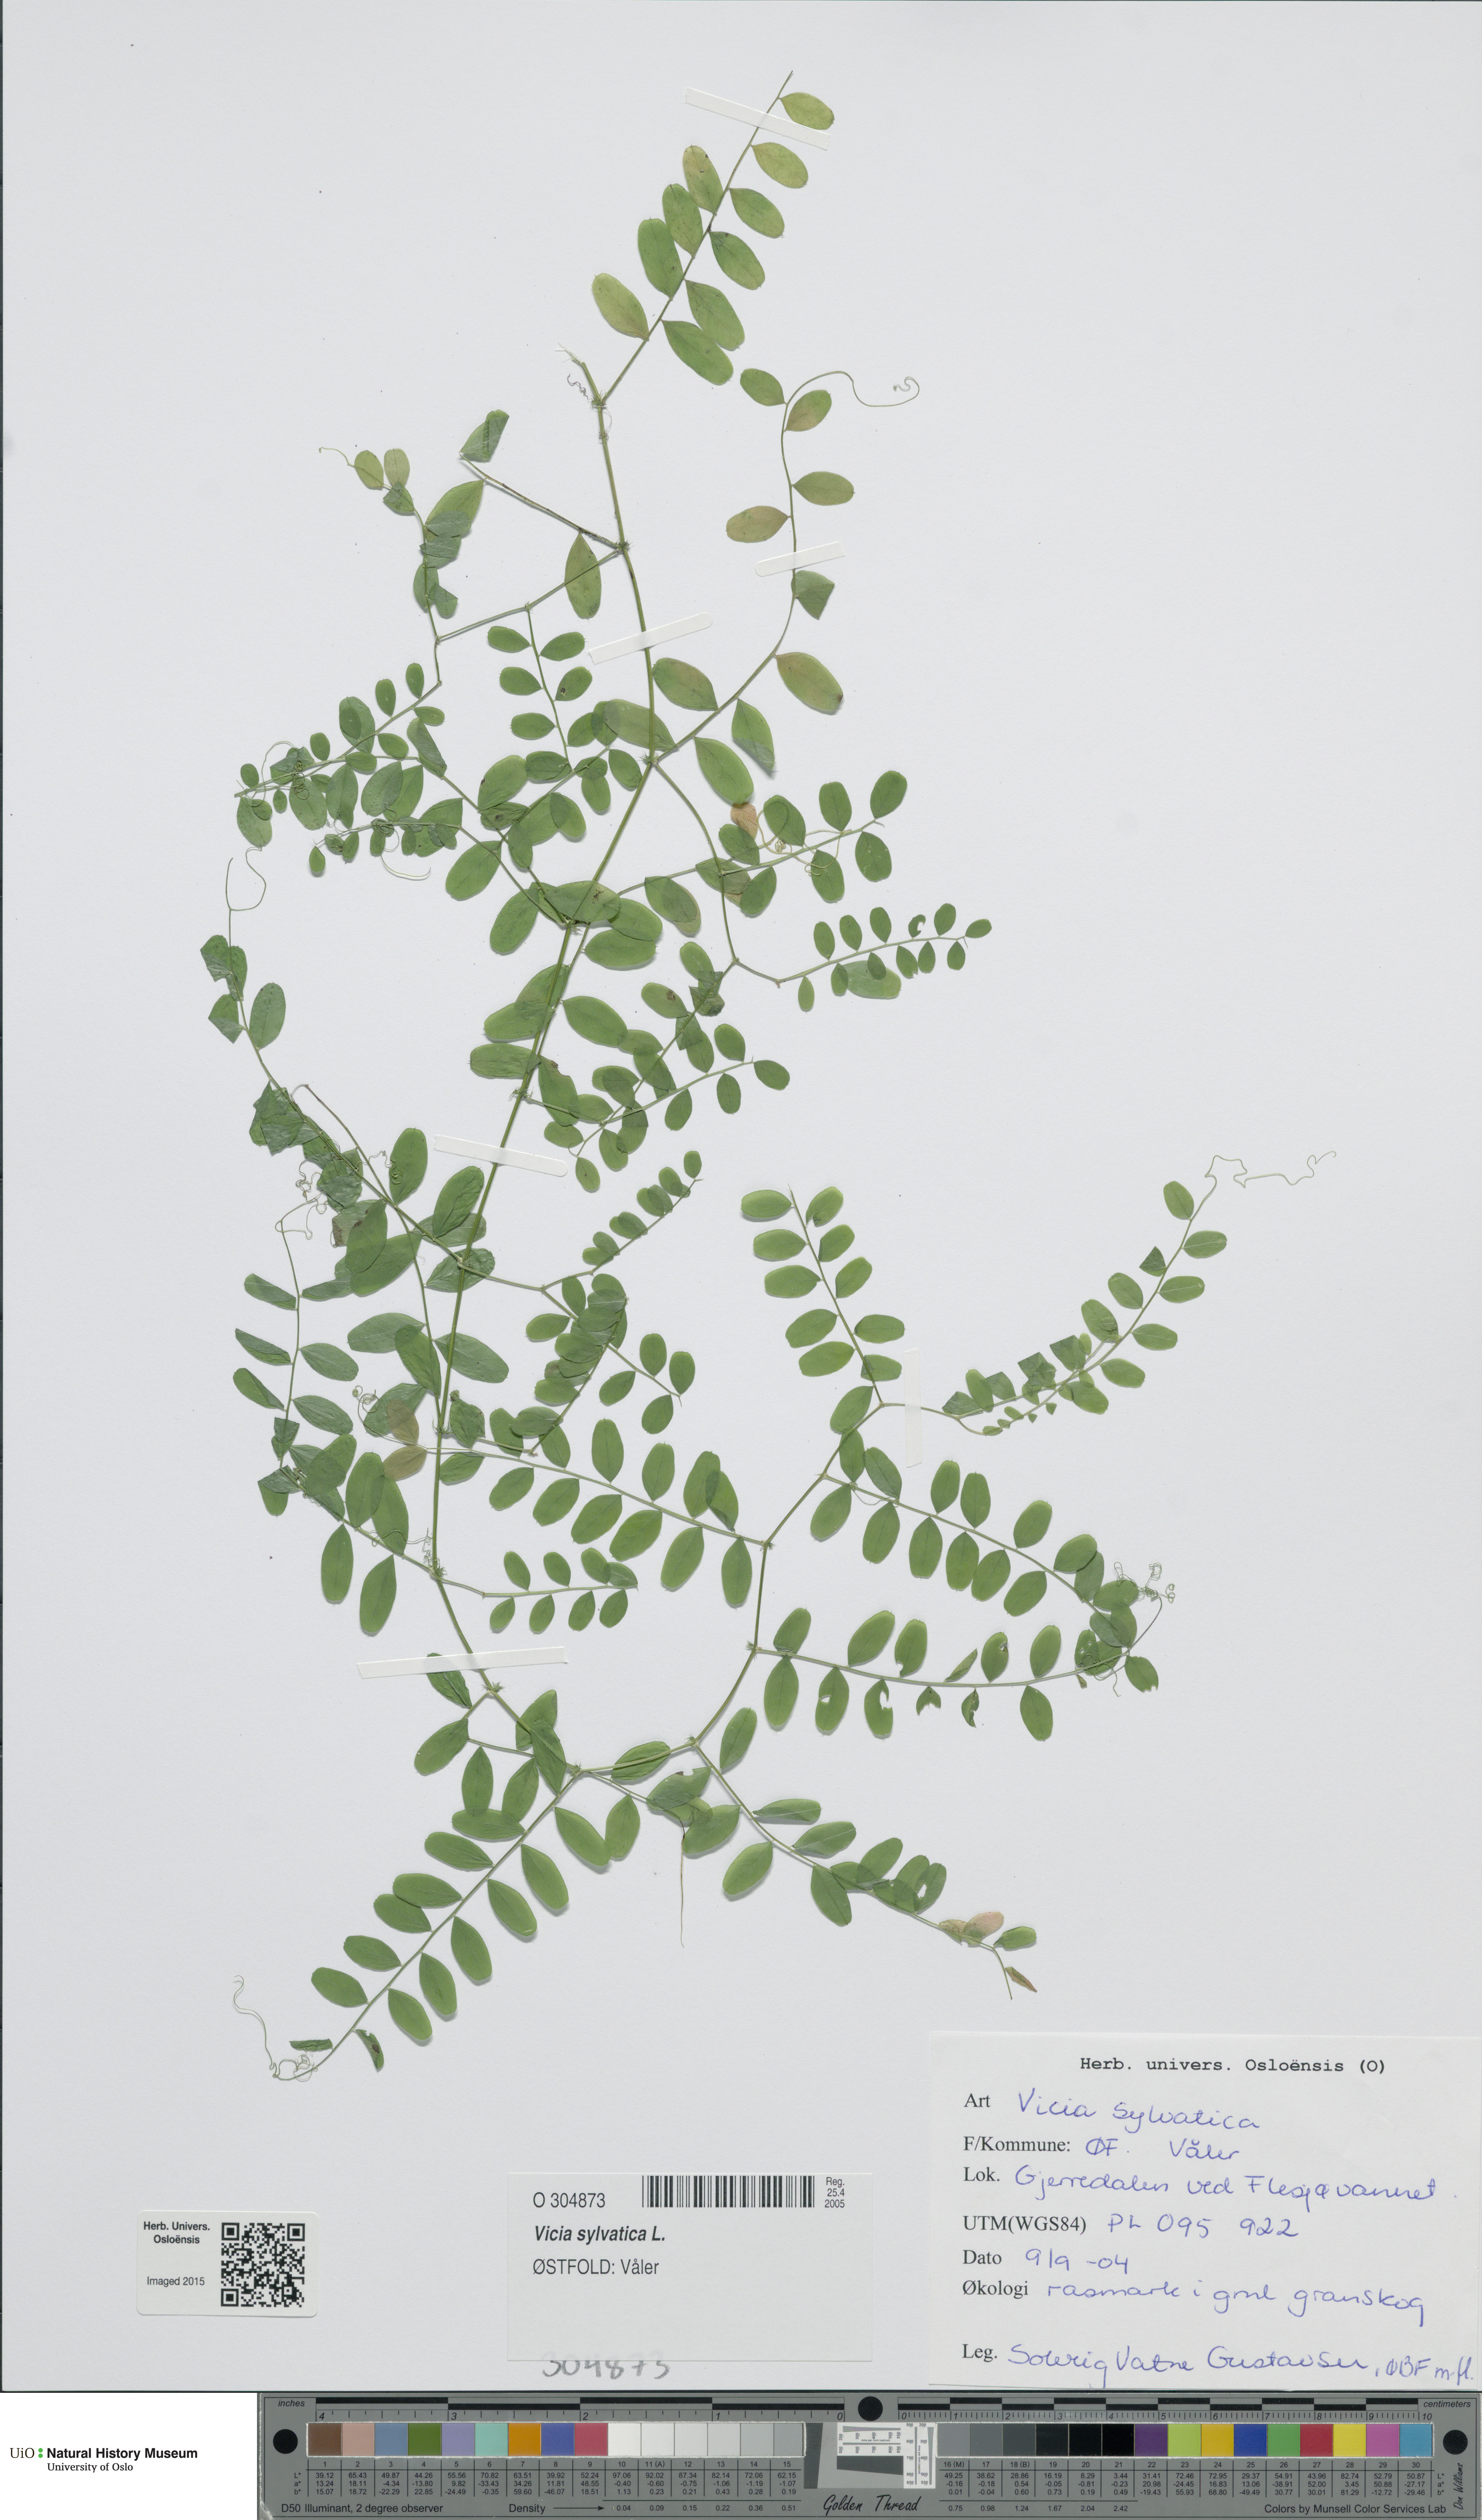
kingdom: Plantae
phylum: Tracheophyta
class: Magnoliopsida
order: Fabales
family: Fabaceae
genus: Vicia
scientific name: Vicia sylvatica
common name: Wood vetch
